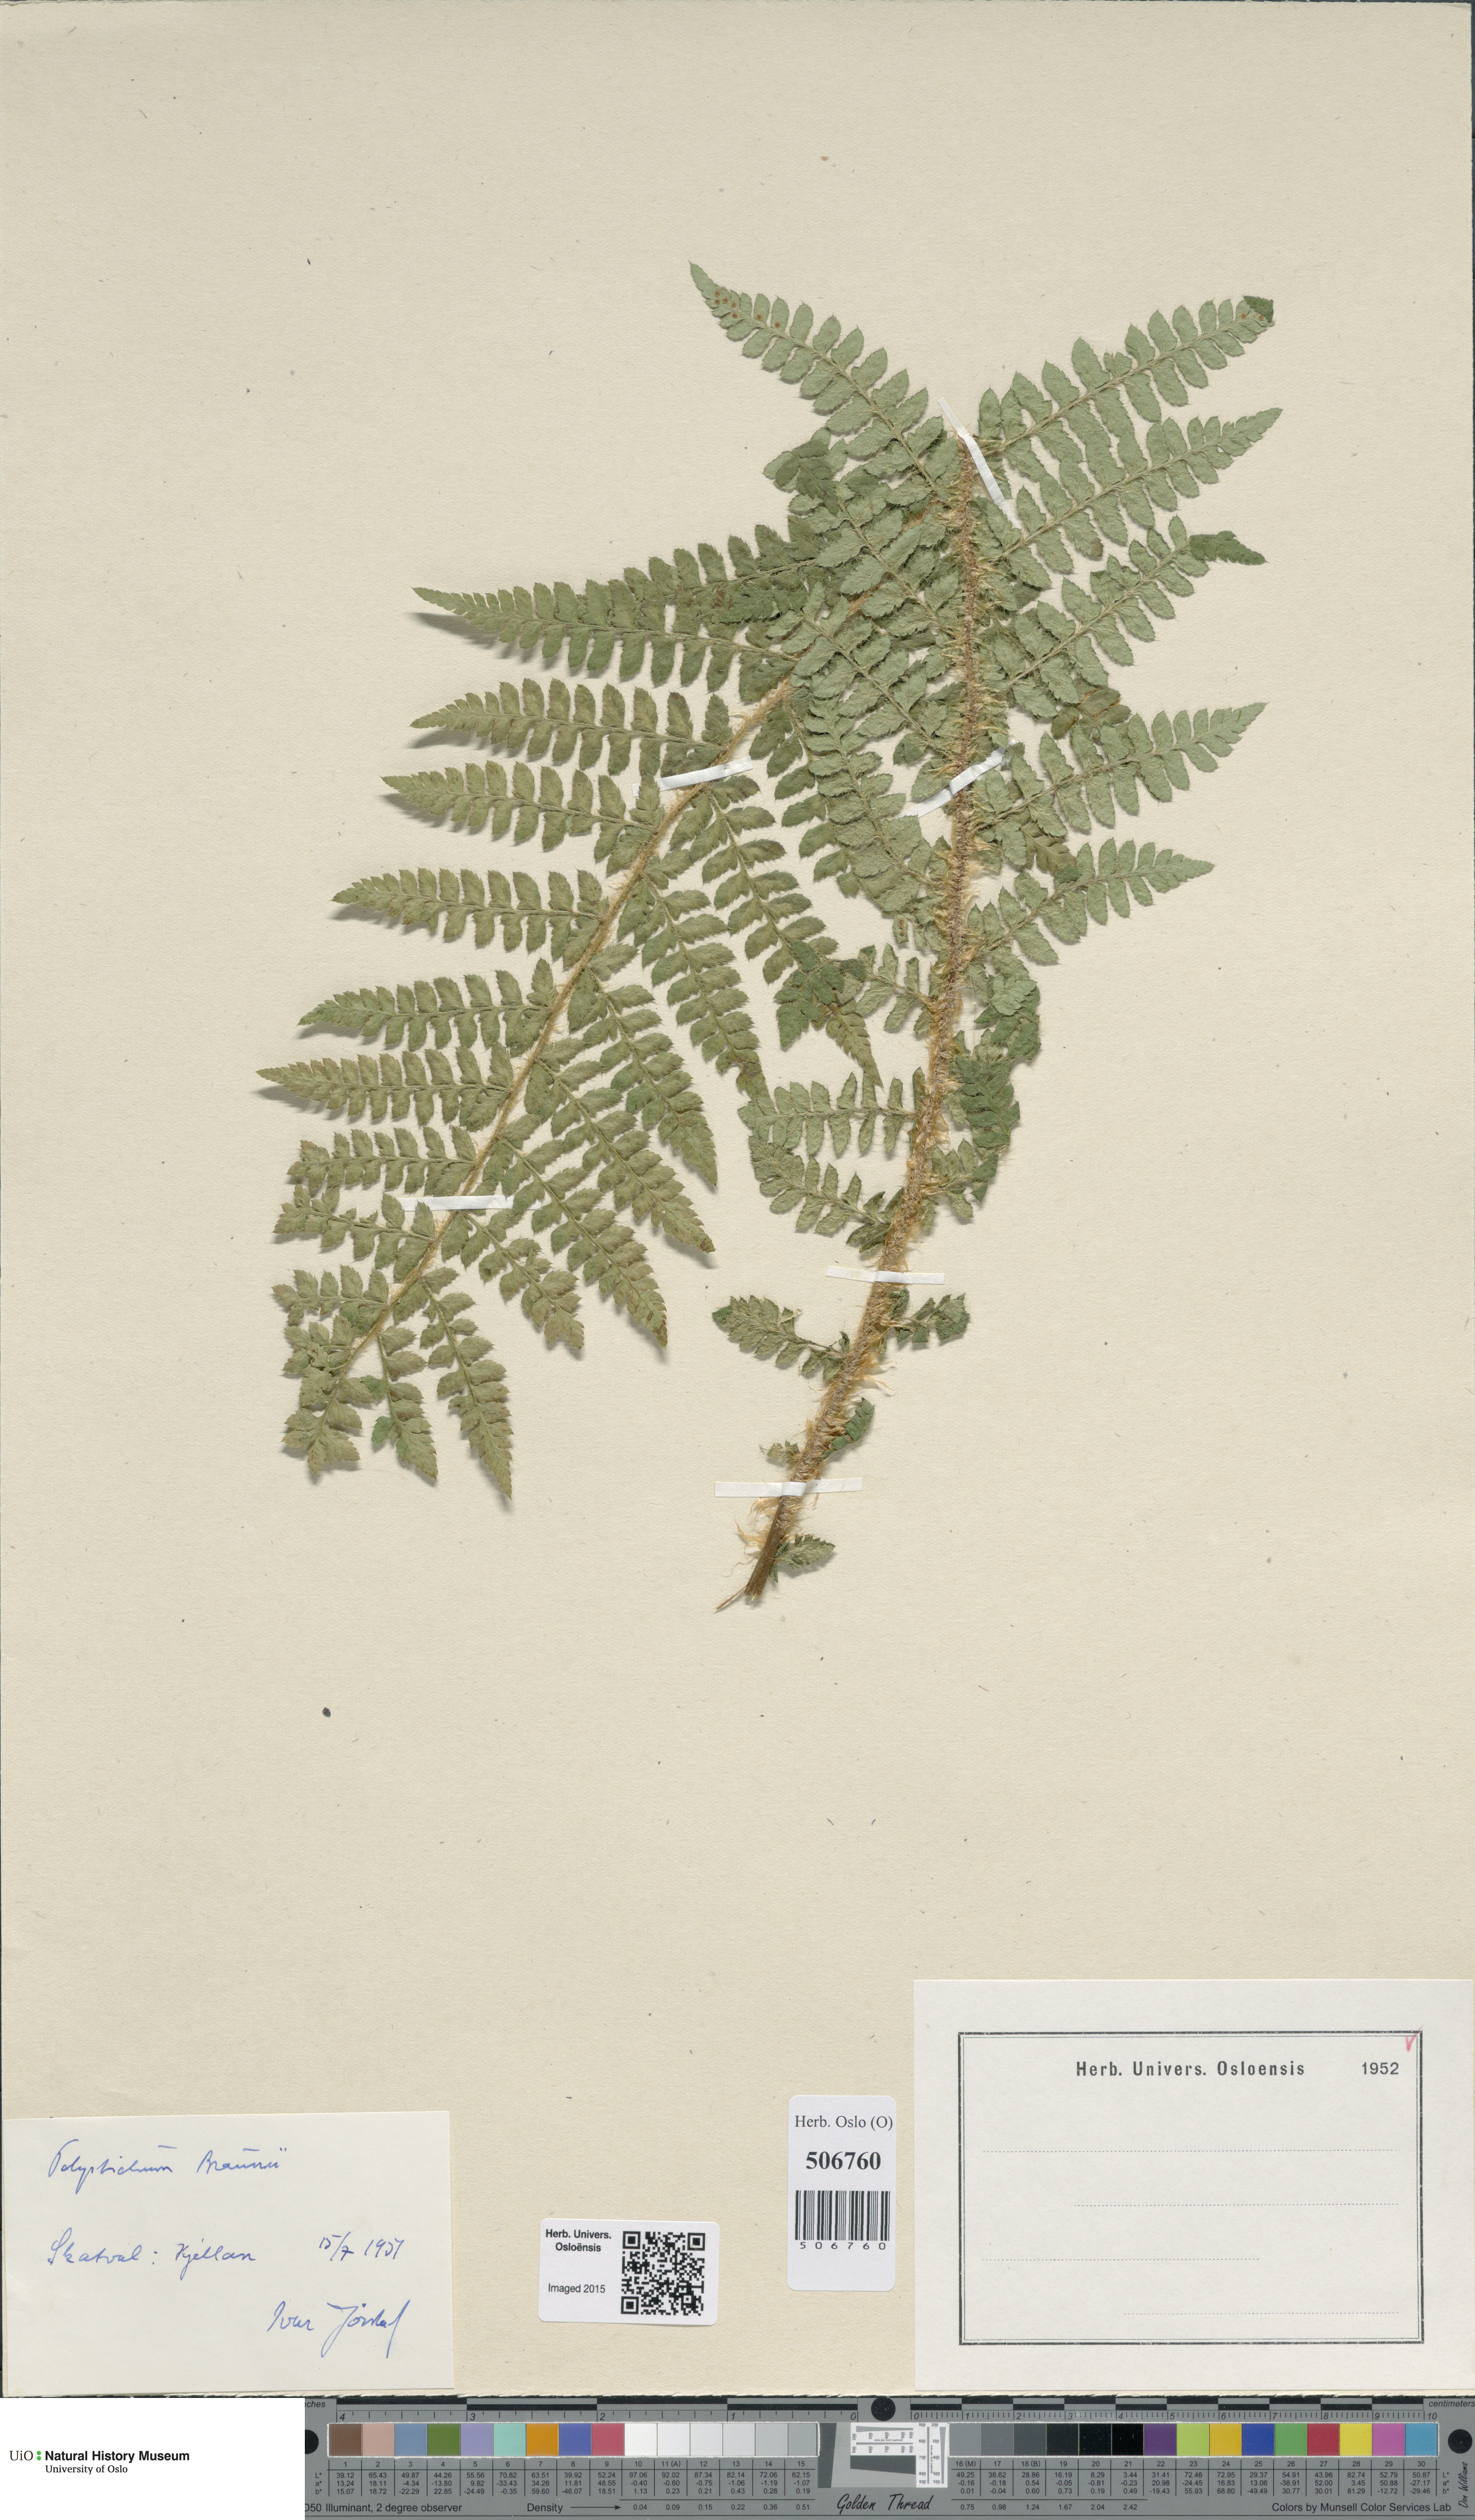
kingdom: Plantae
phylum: Tracheophyta
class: Polypodiopsida
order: Polypodiales
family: Dryopteridaceae
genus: Polystichum
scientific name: Polystichum braunii
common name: Braun's holly fern
